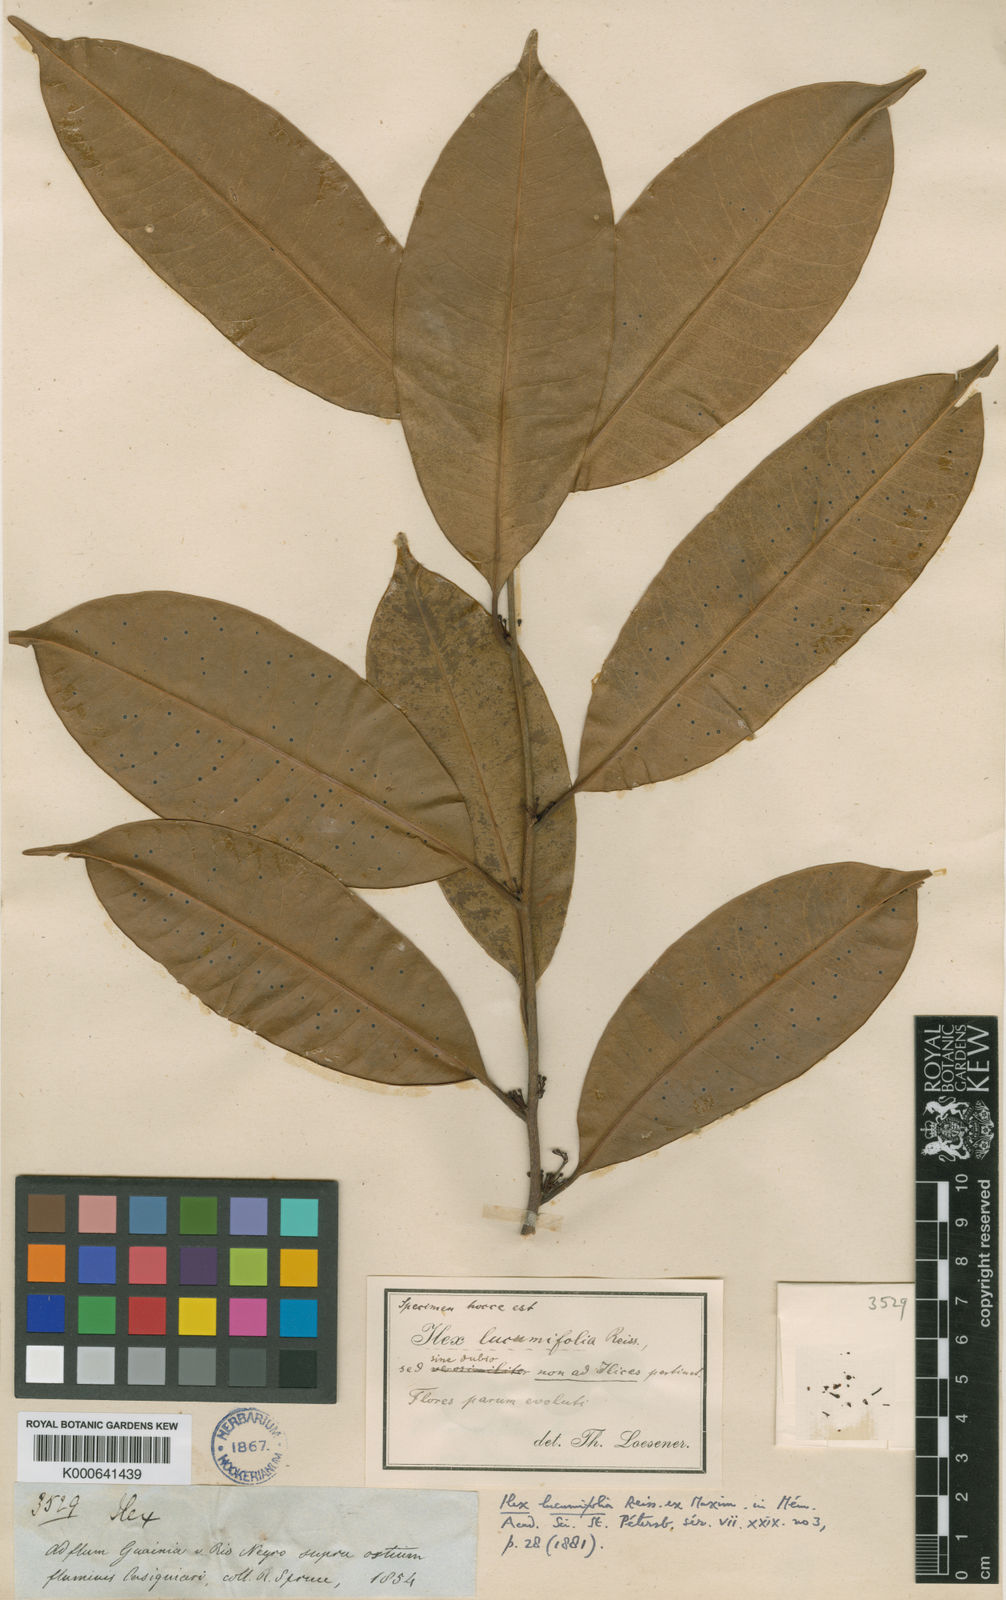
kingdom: Plantae
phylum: Tracheophyta
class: Magnoliopsida
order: Ericales
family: Sapotaceae
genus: Pouteria
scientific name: Pouteria lucumifolia
